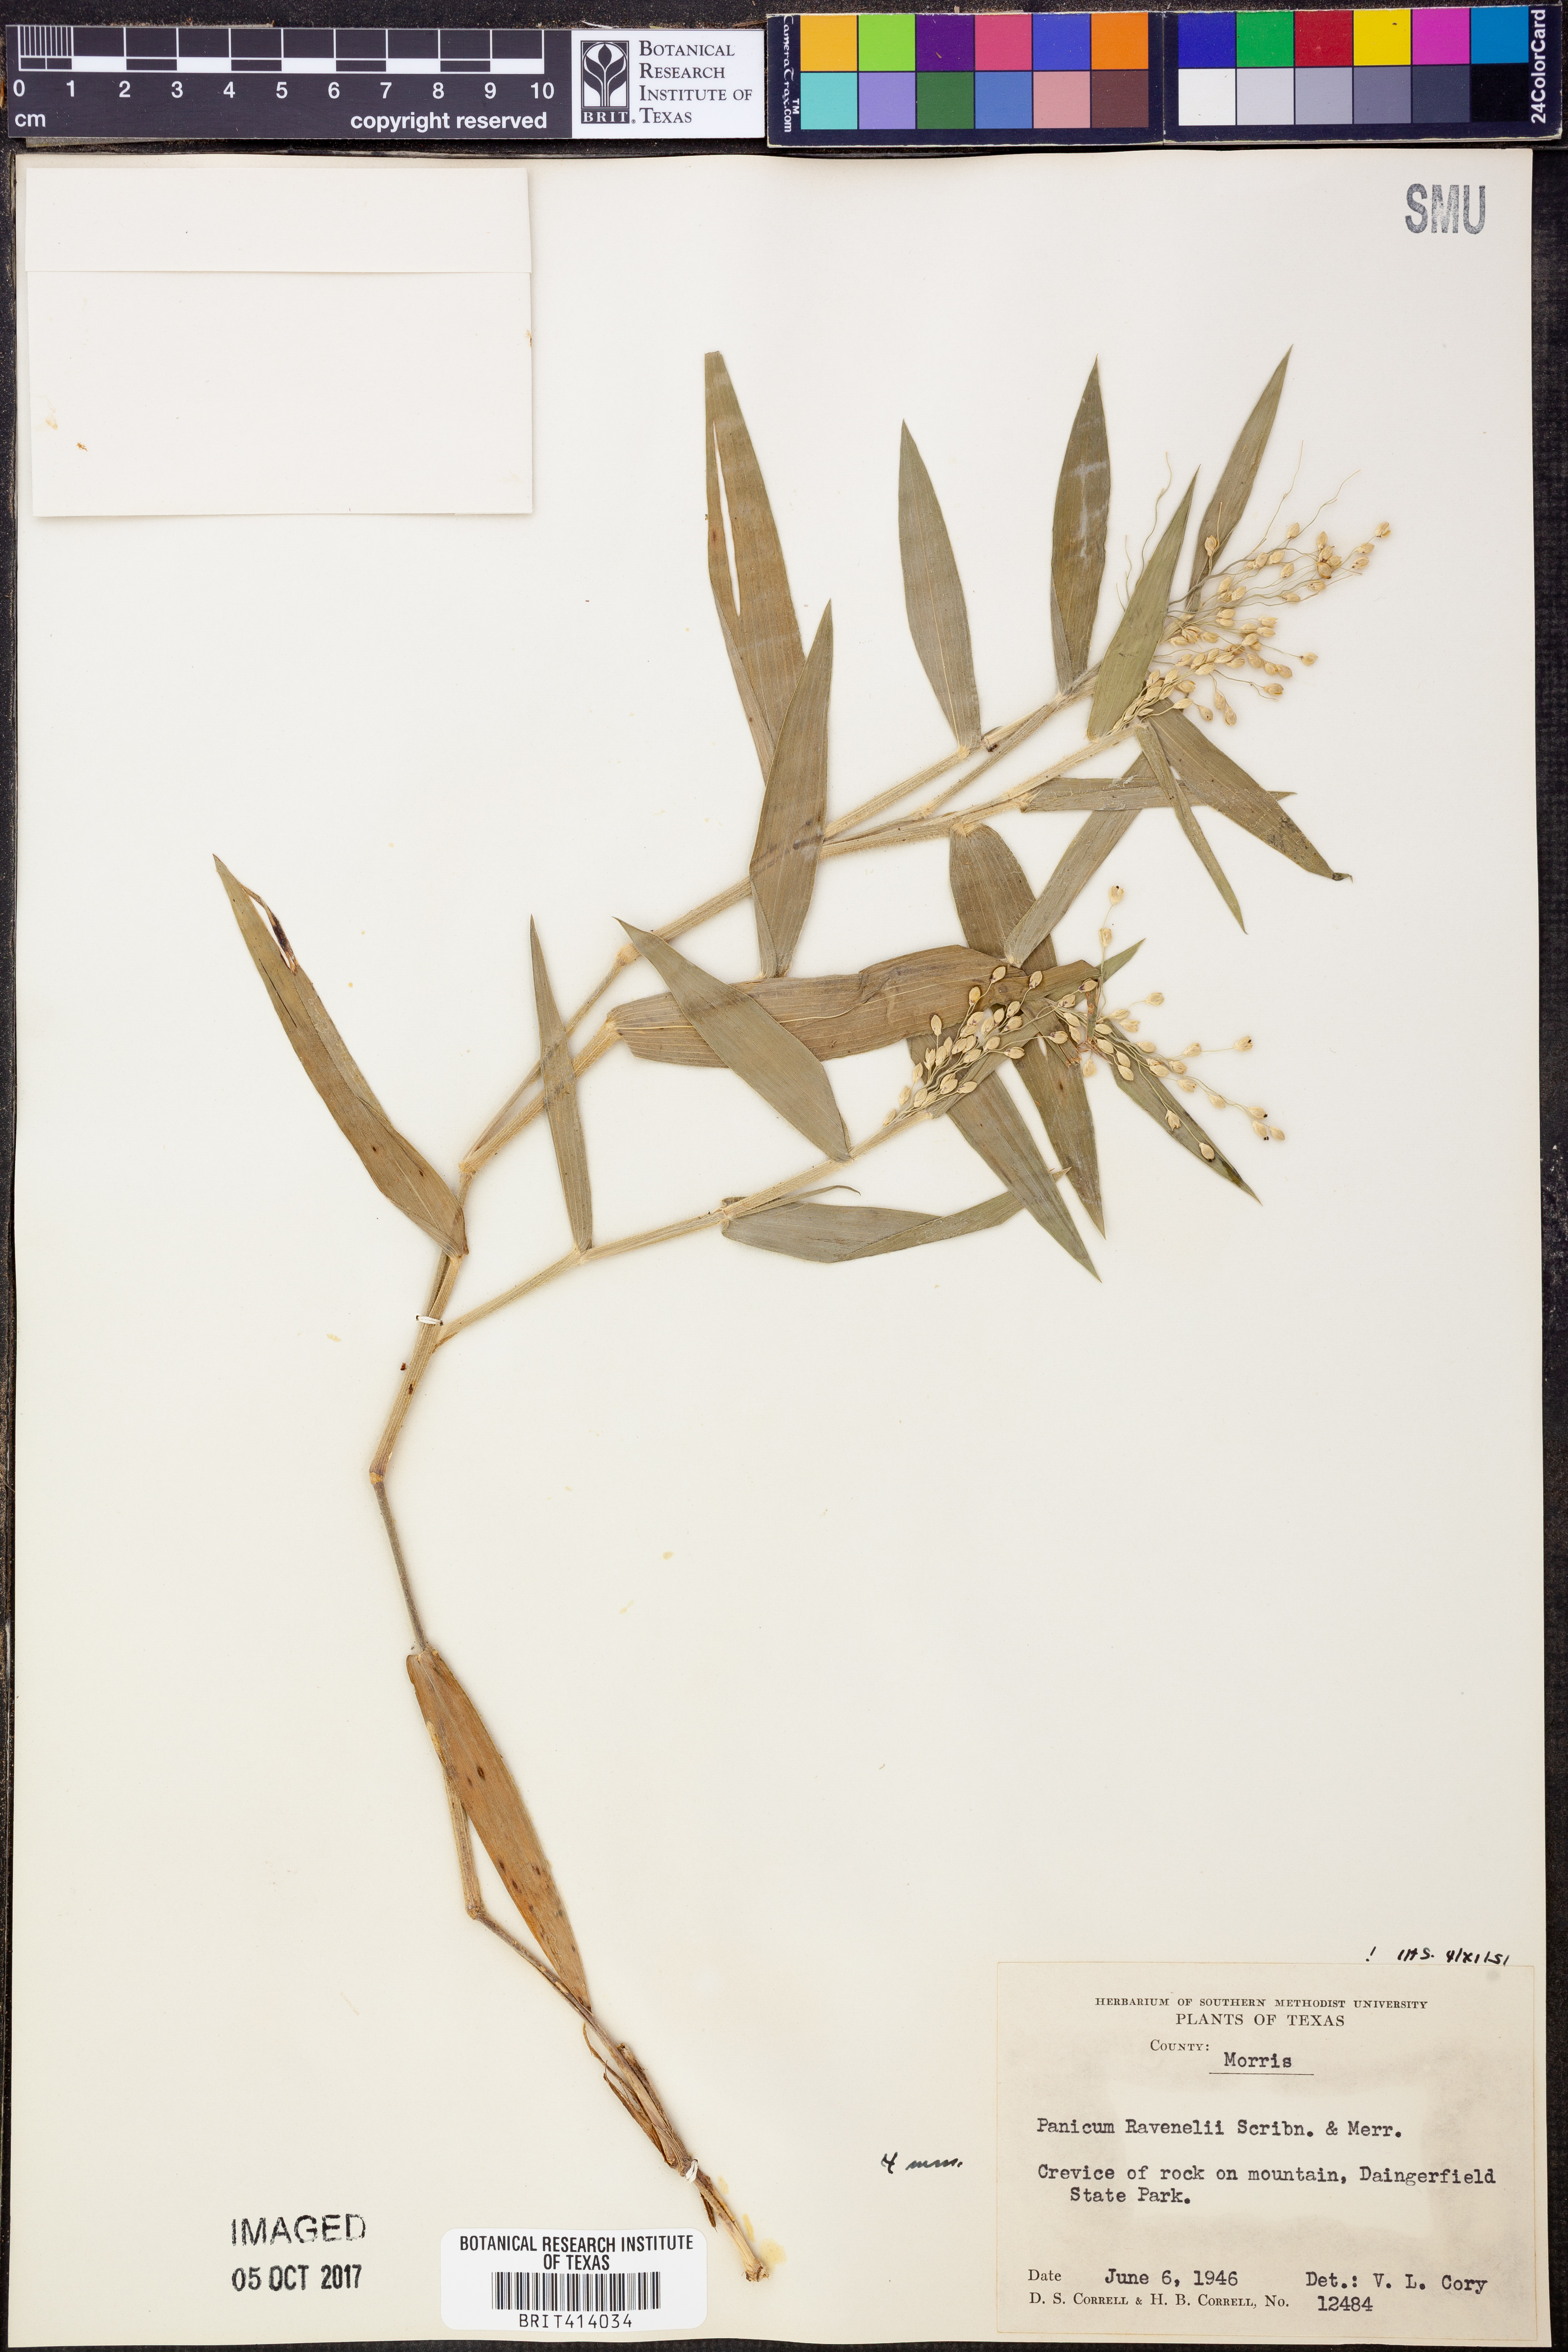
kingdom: Plantae
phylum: Tracheophyta
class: Liliopsida
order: Poales
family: Poaceae
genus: Dichanthelium
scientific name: Dichanthelium ravenelii
